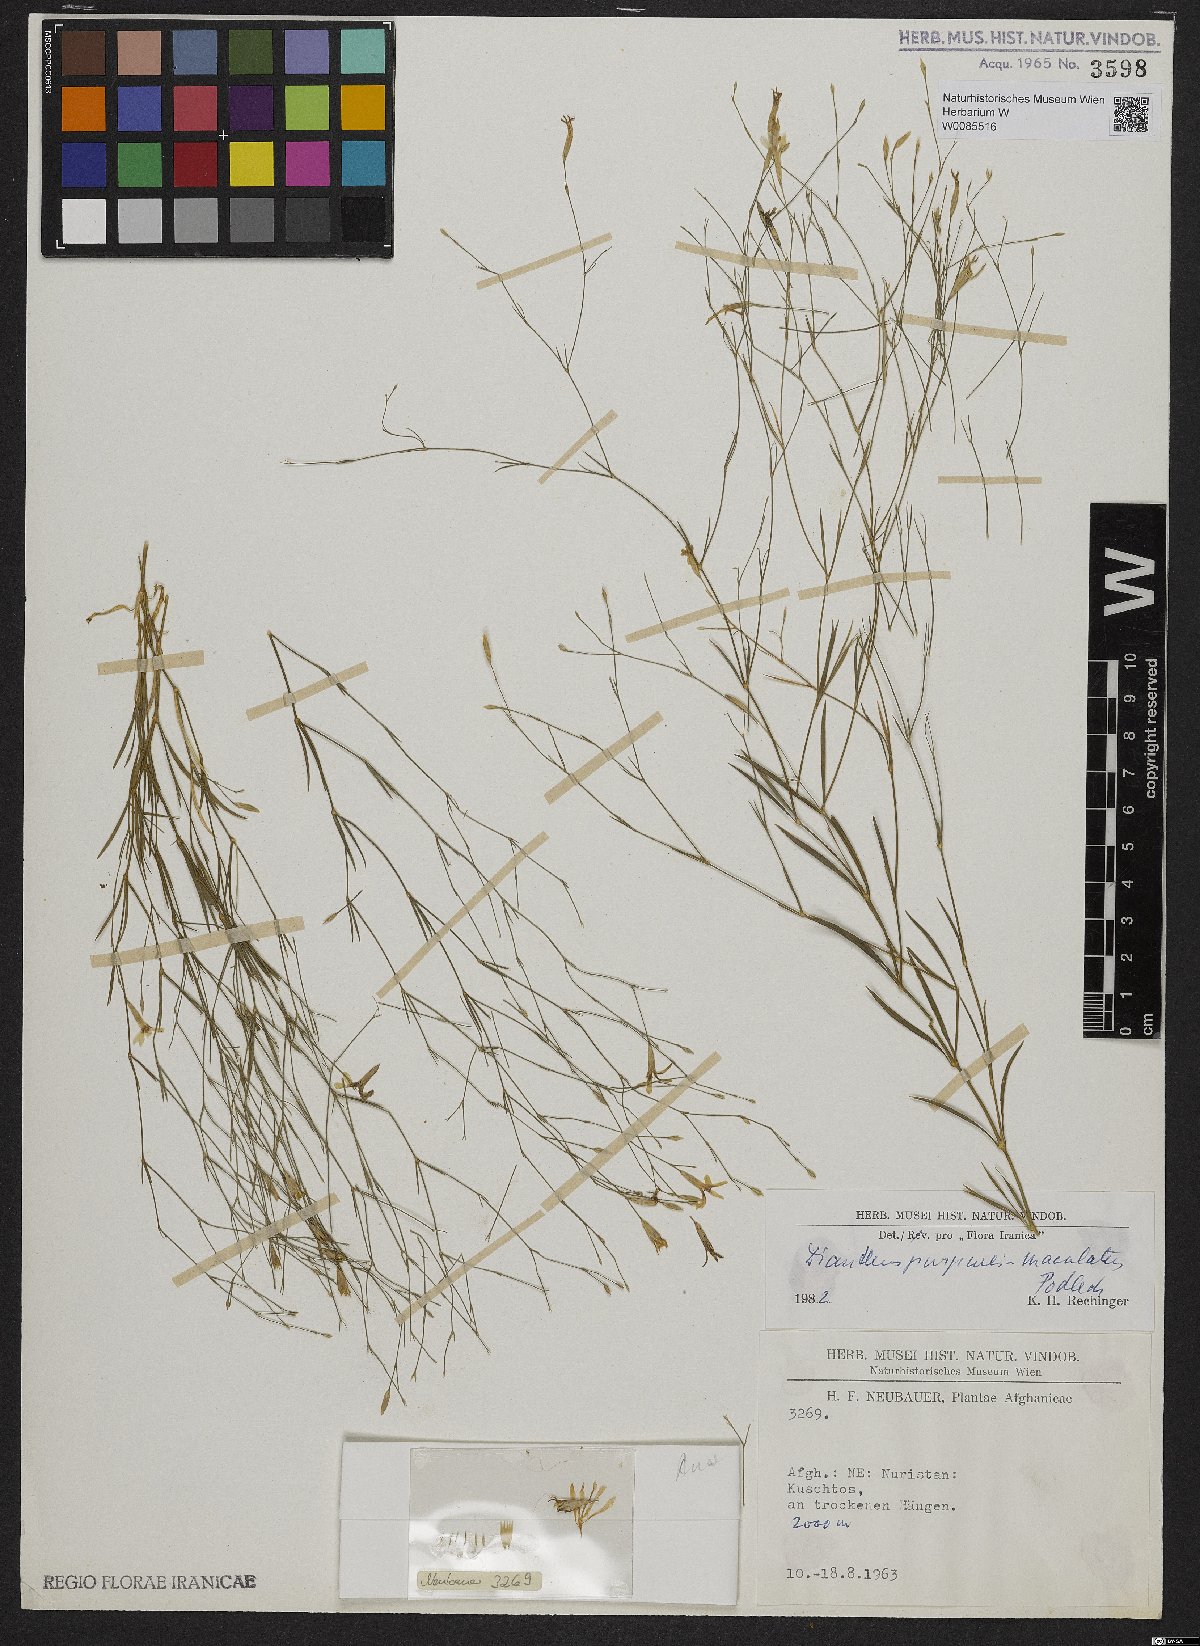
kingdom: Plantae
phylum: Tracheophyta
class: Magnoliopsida
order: Caryophyllales
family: Caryophyllaceae
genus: Dianthus
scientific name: Dianthus purpureimaculatus
